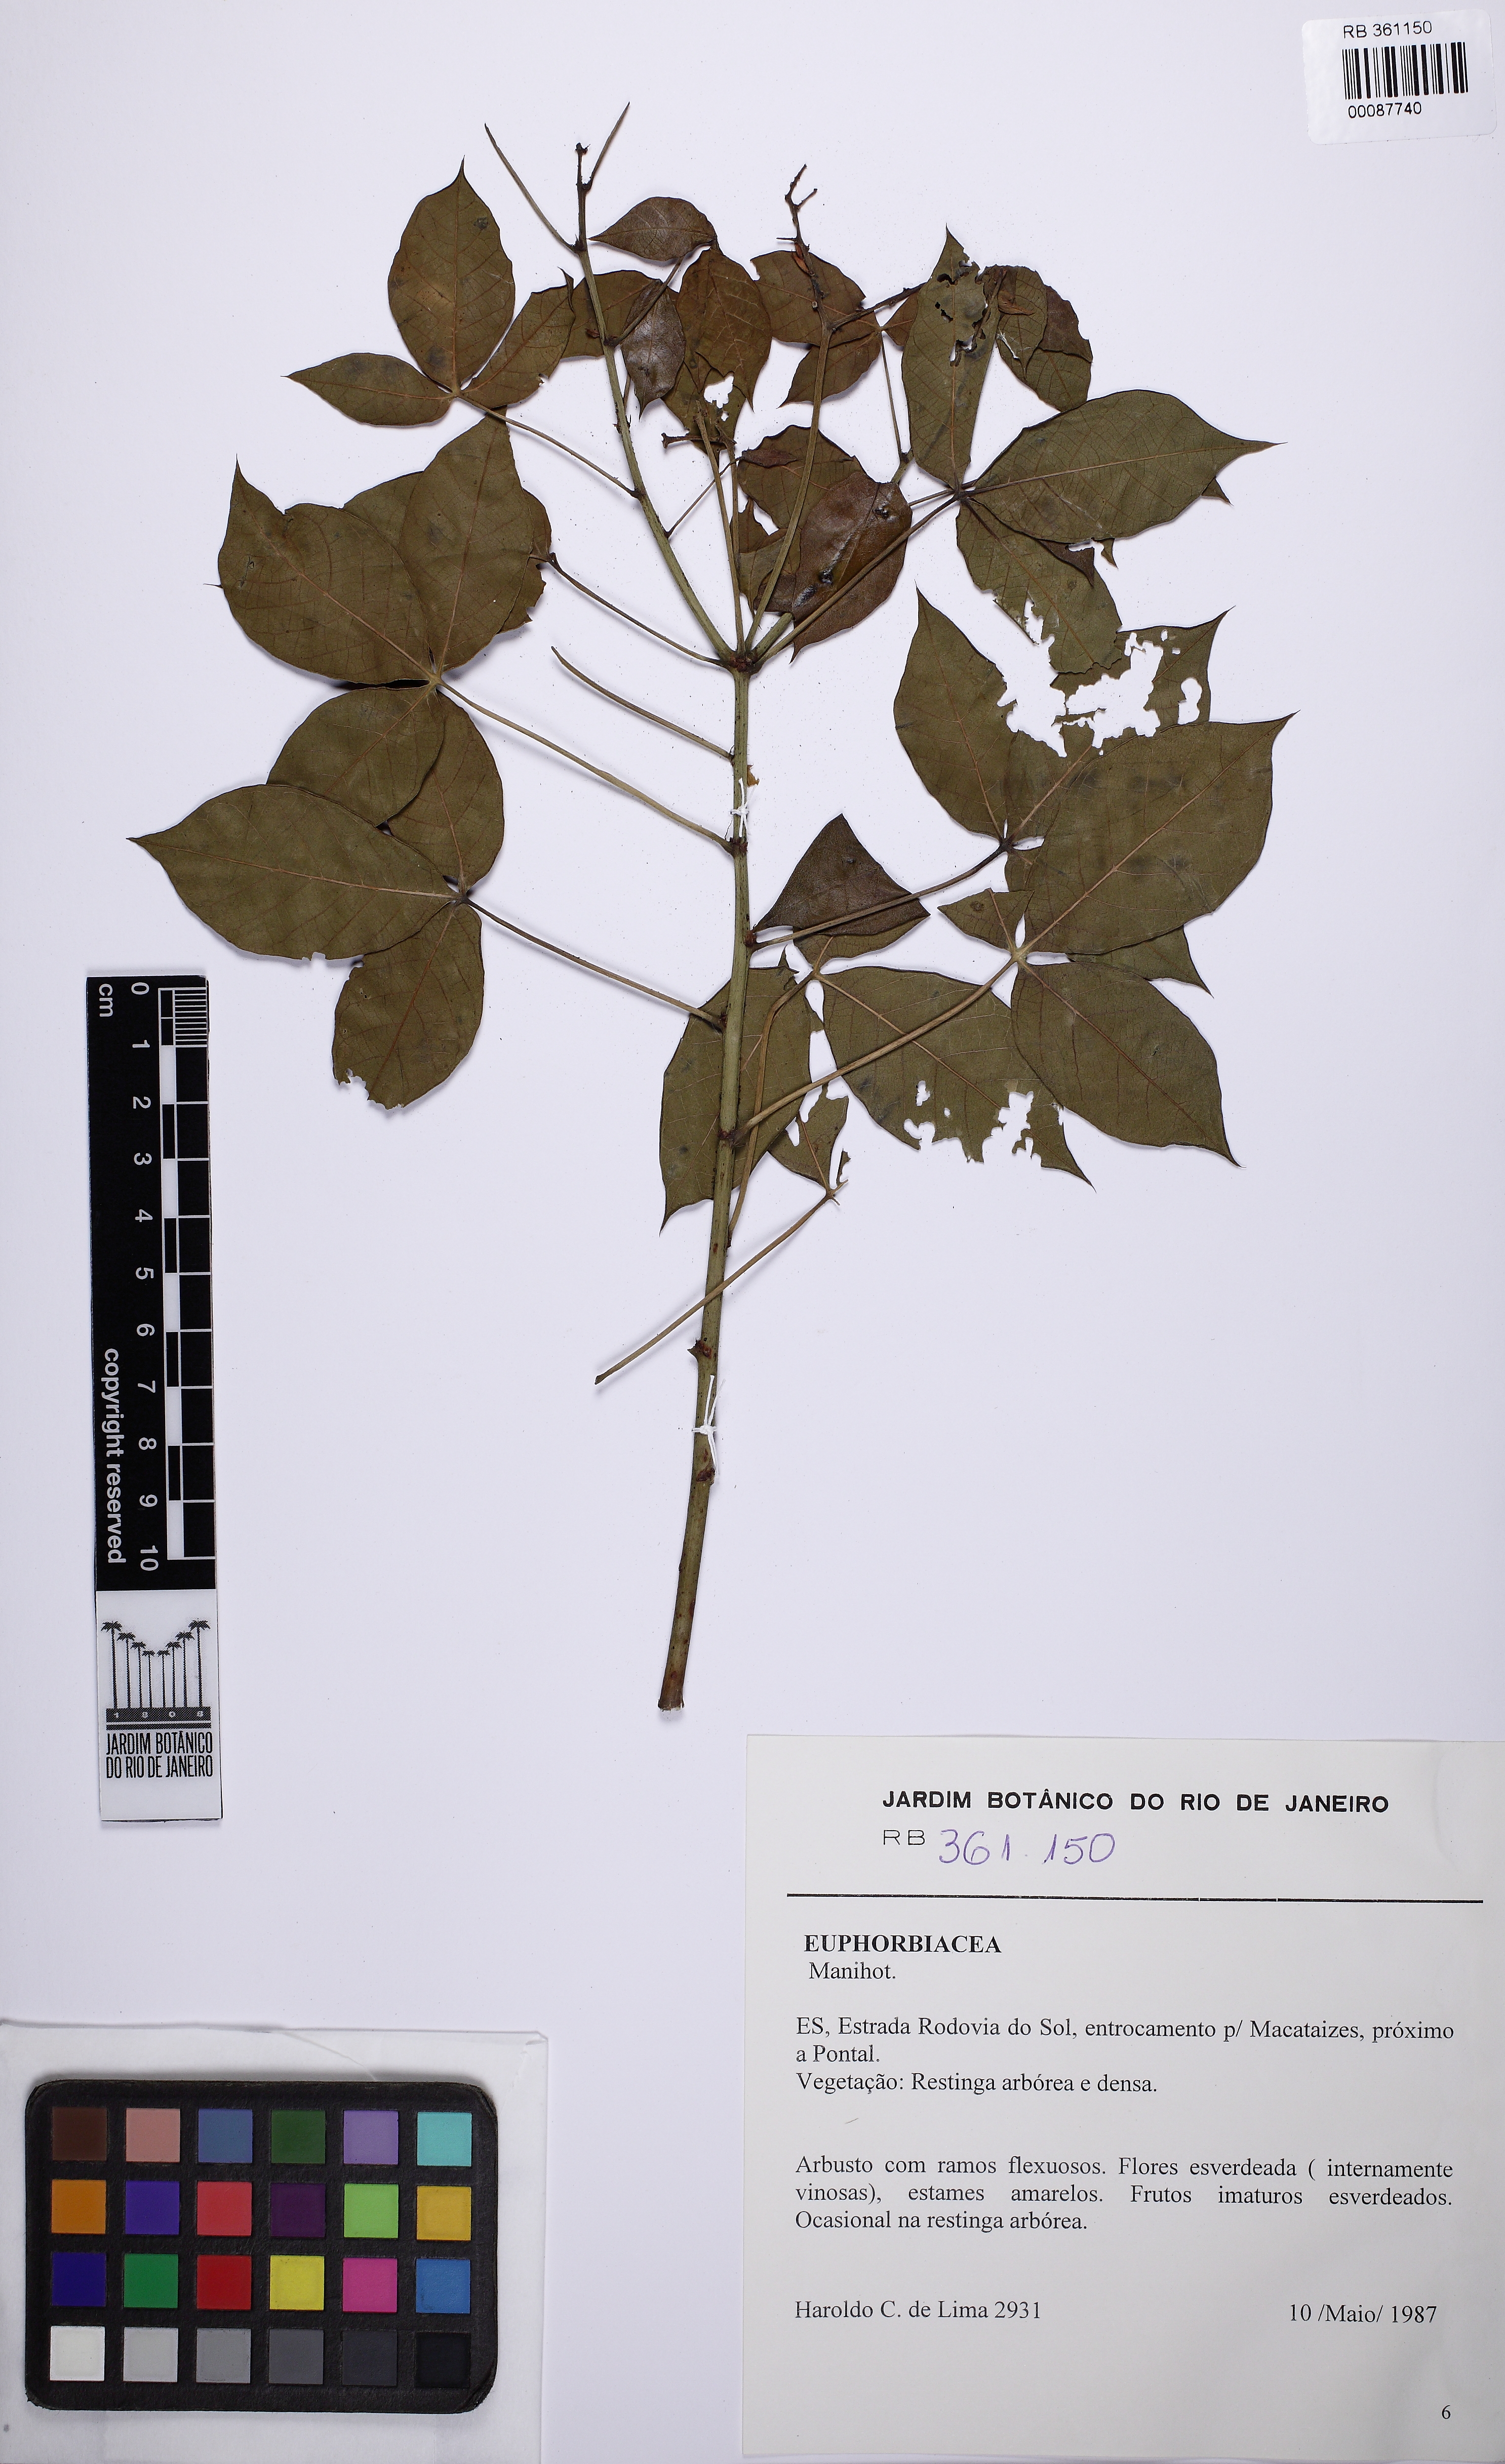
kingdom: Plantae
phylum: Tracheophyta
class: Magnoliopsida
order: Malpighiales
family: Euphorbiaceae
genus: Manihot
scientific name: Manihot pohlii
